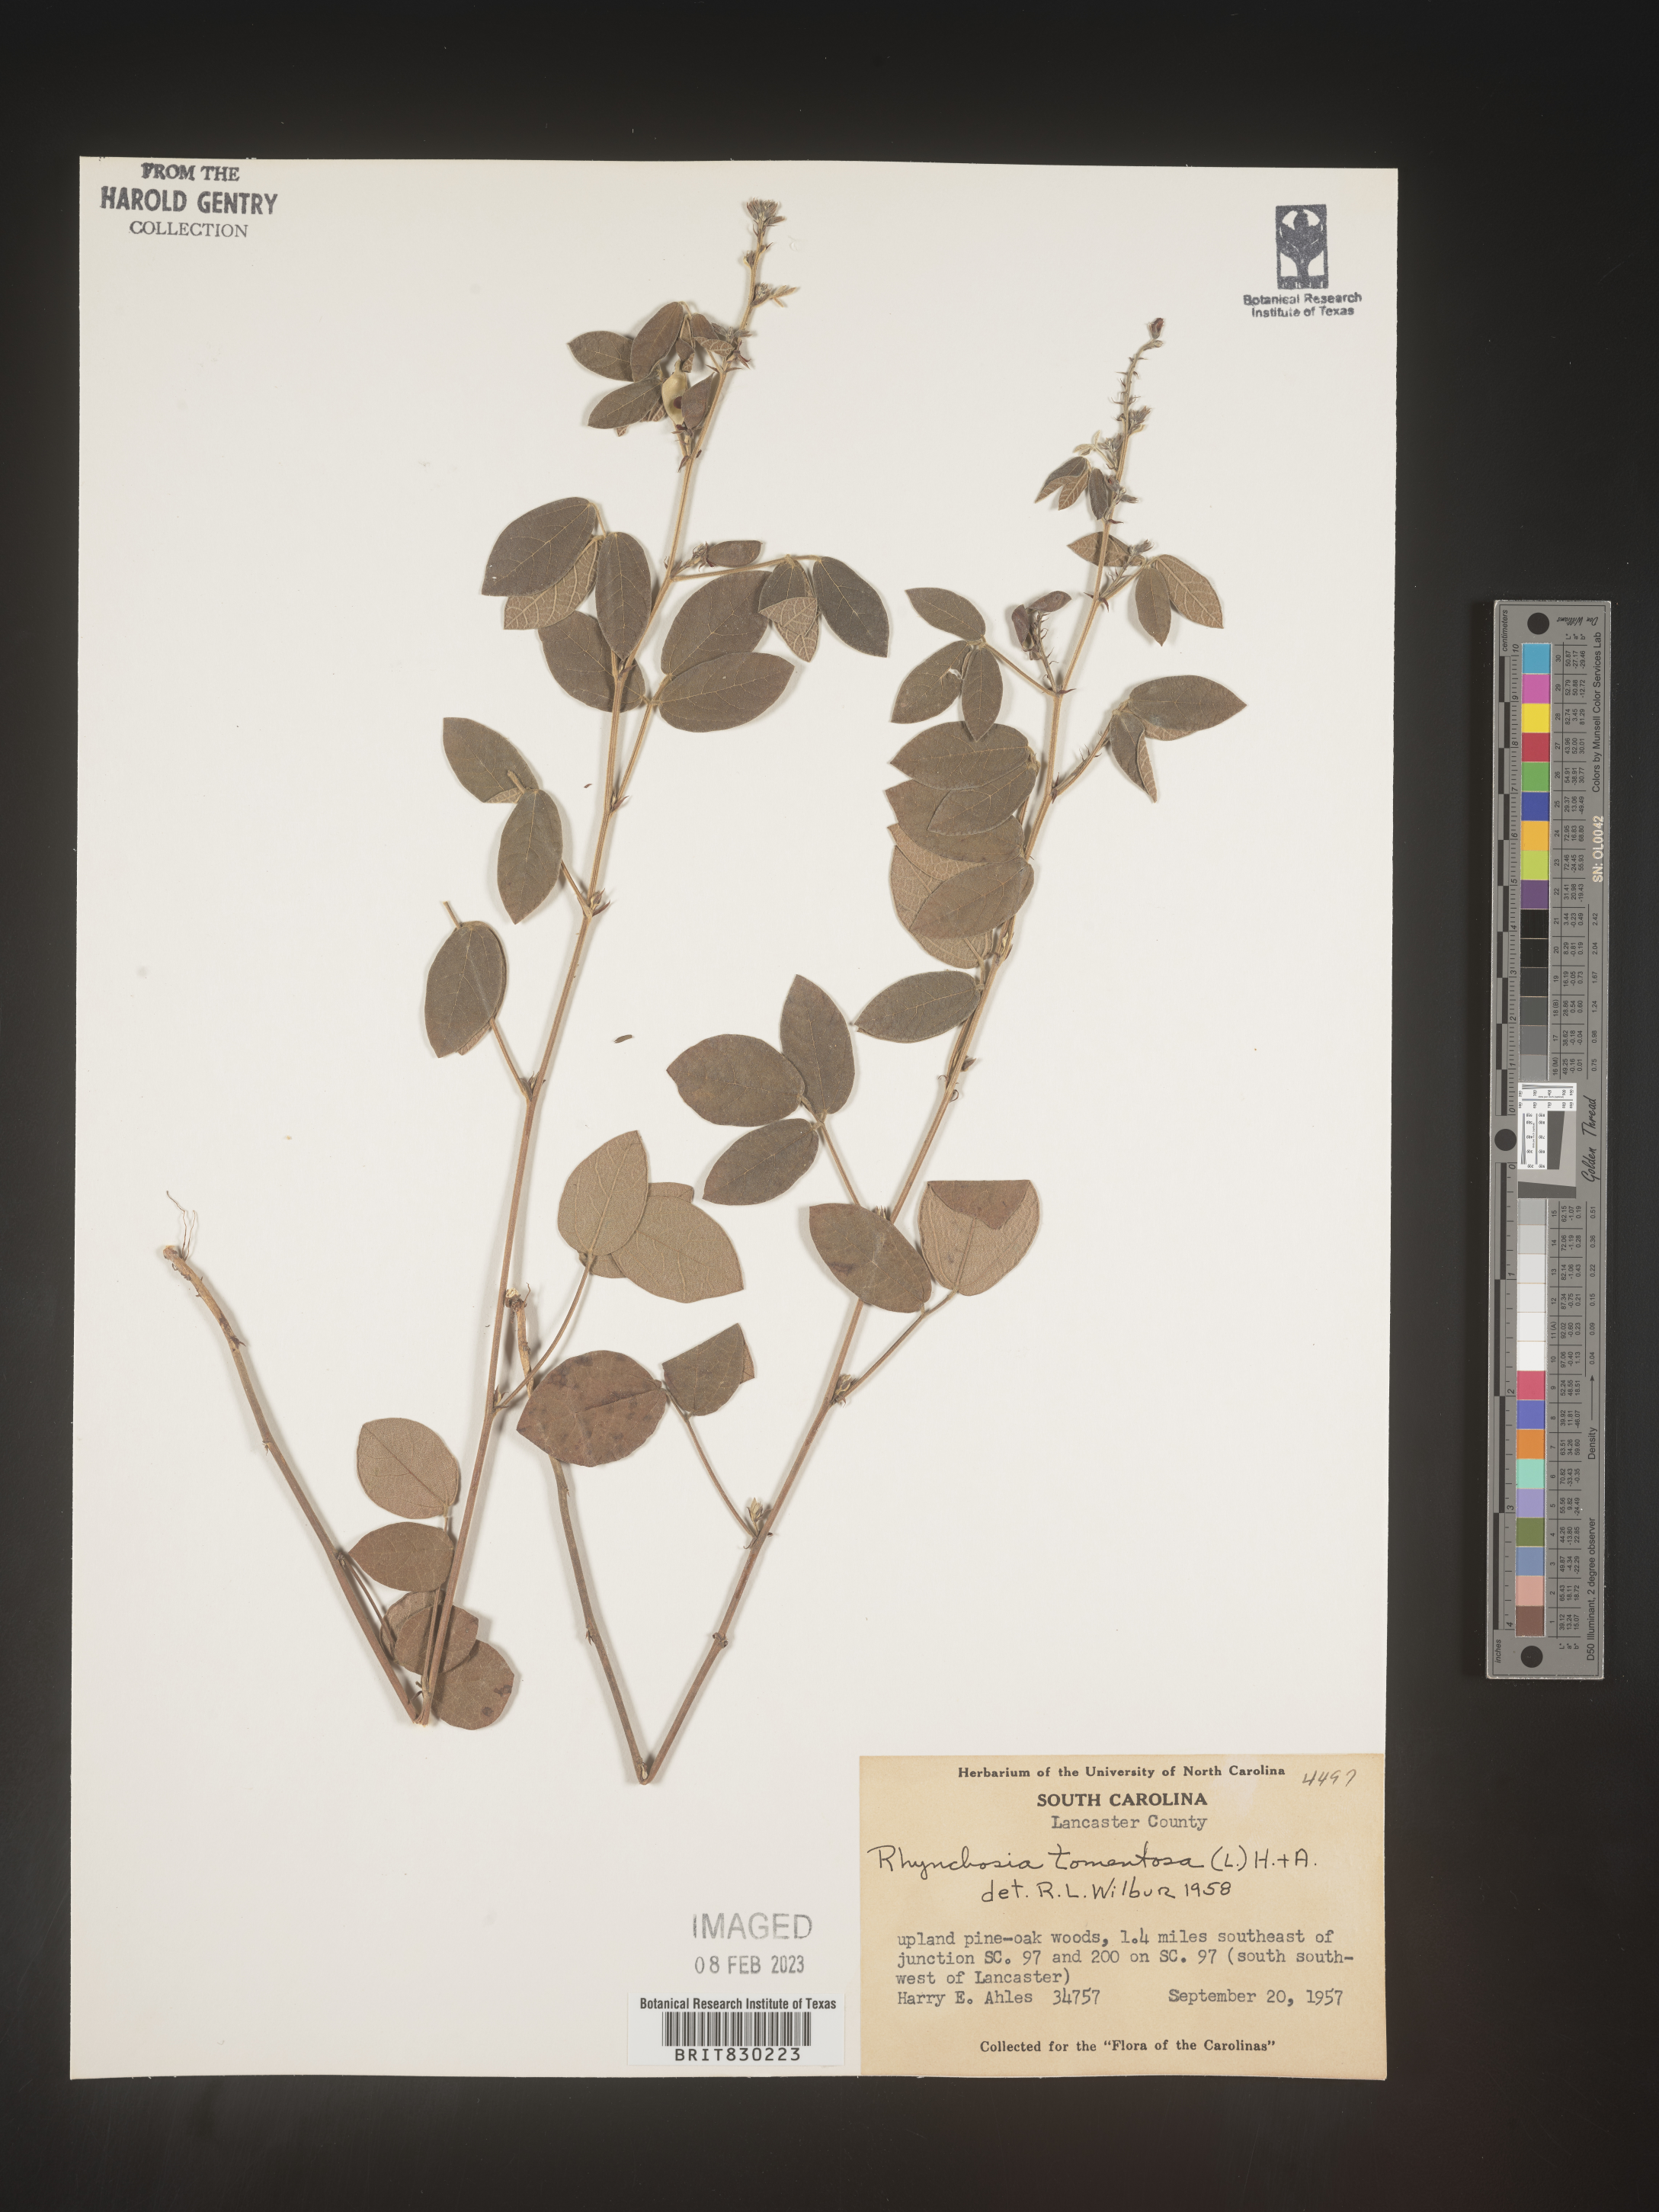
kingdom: Plantae
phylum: Tracheophyta
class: Magnoliopsida
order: Fabales
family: Fabaceae
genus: Rhynchosia
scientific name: Rhynchosia rothii
